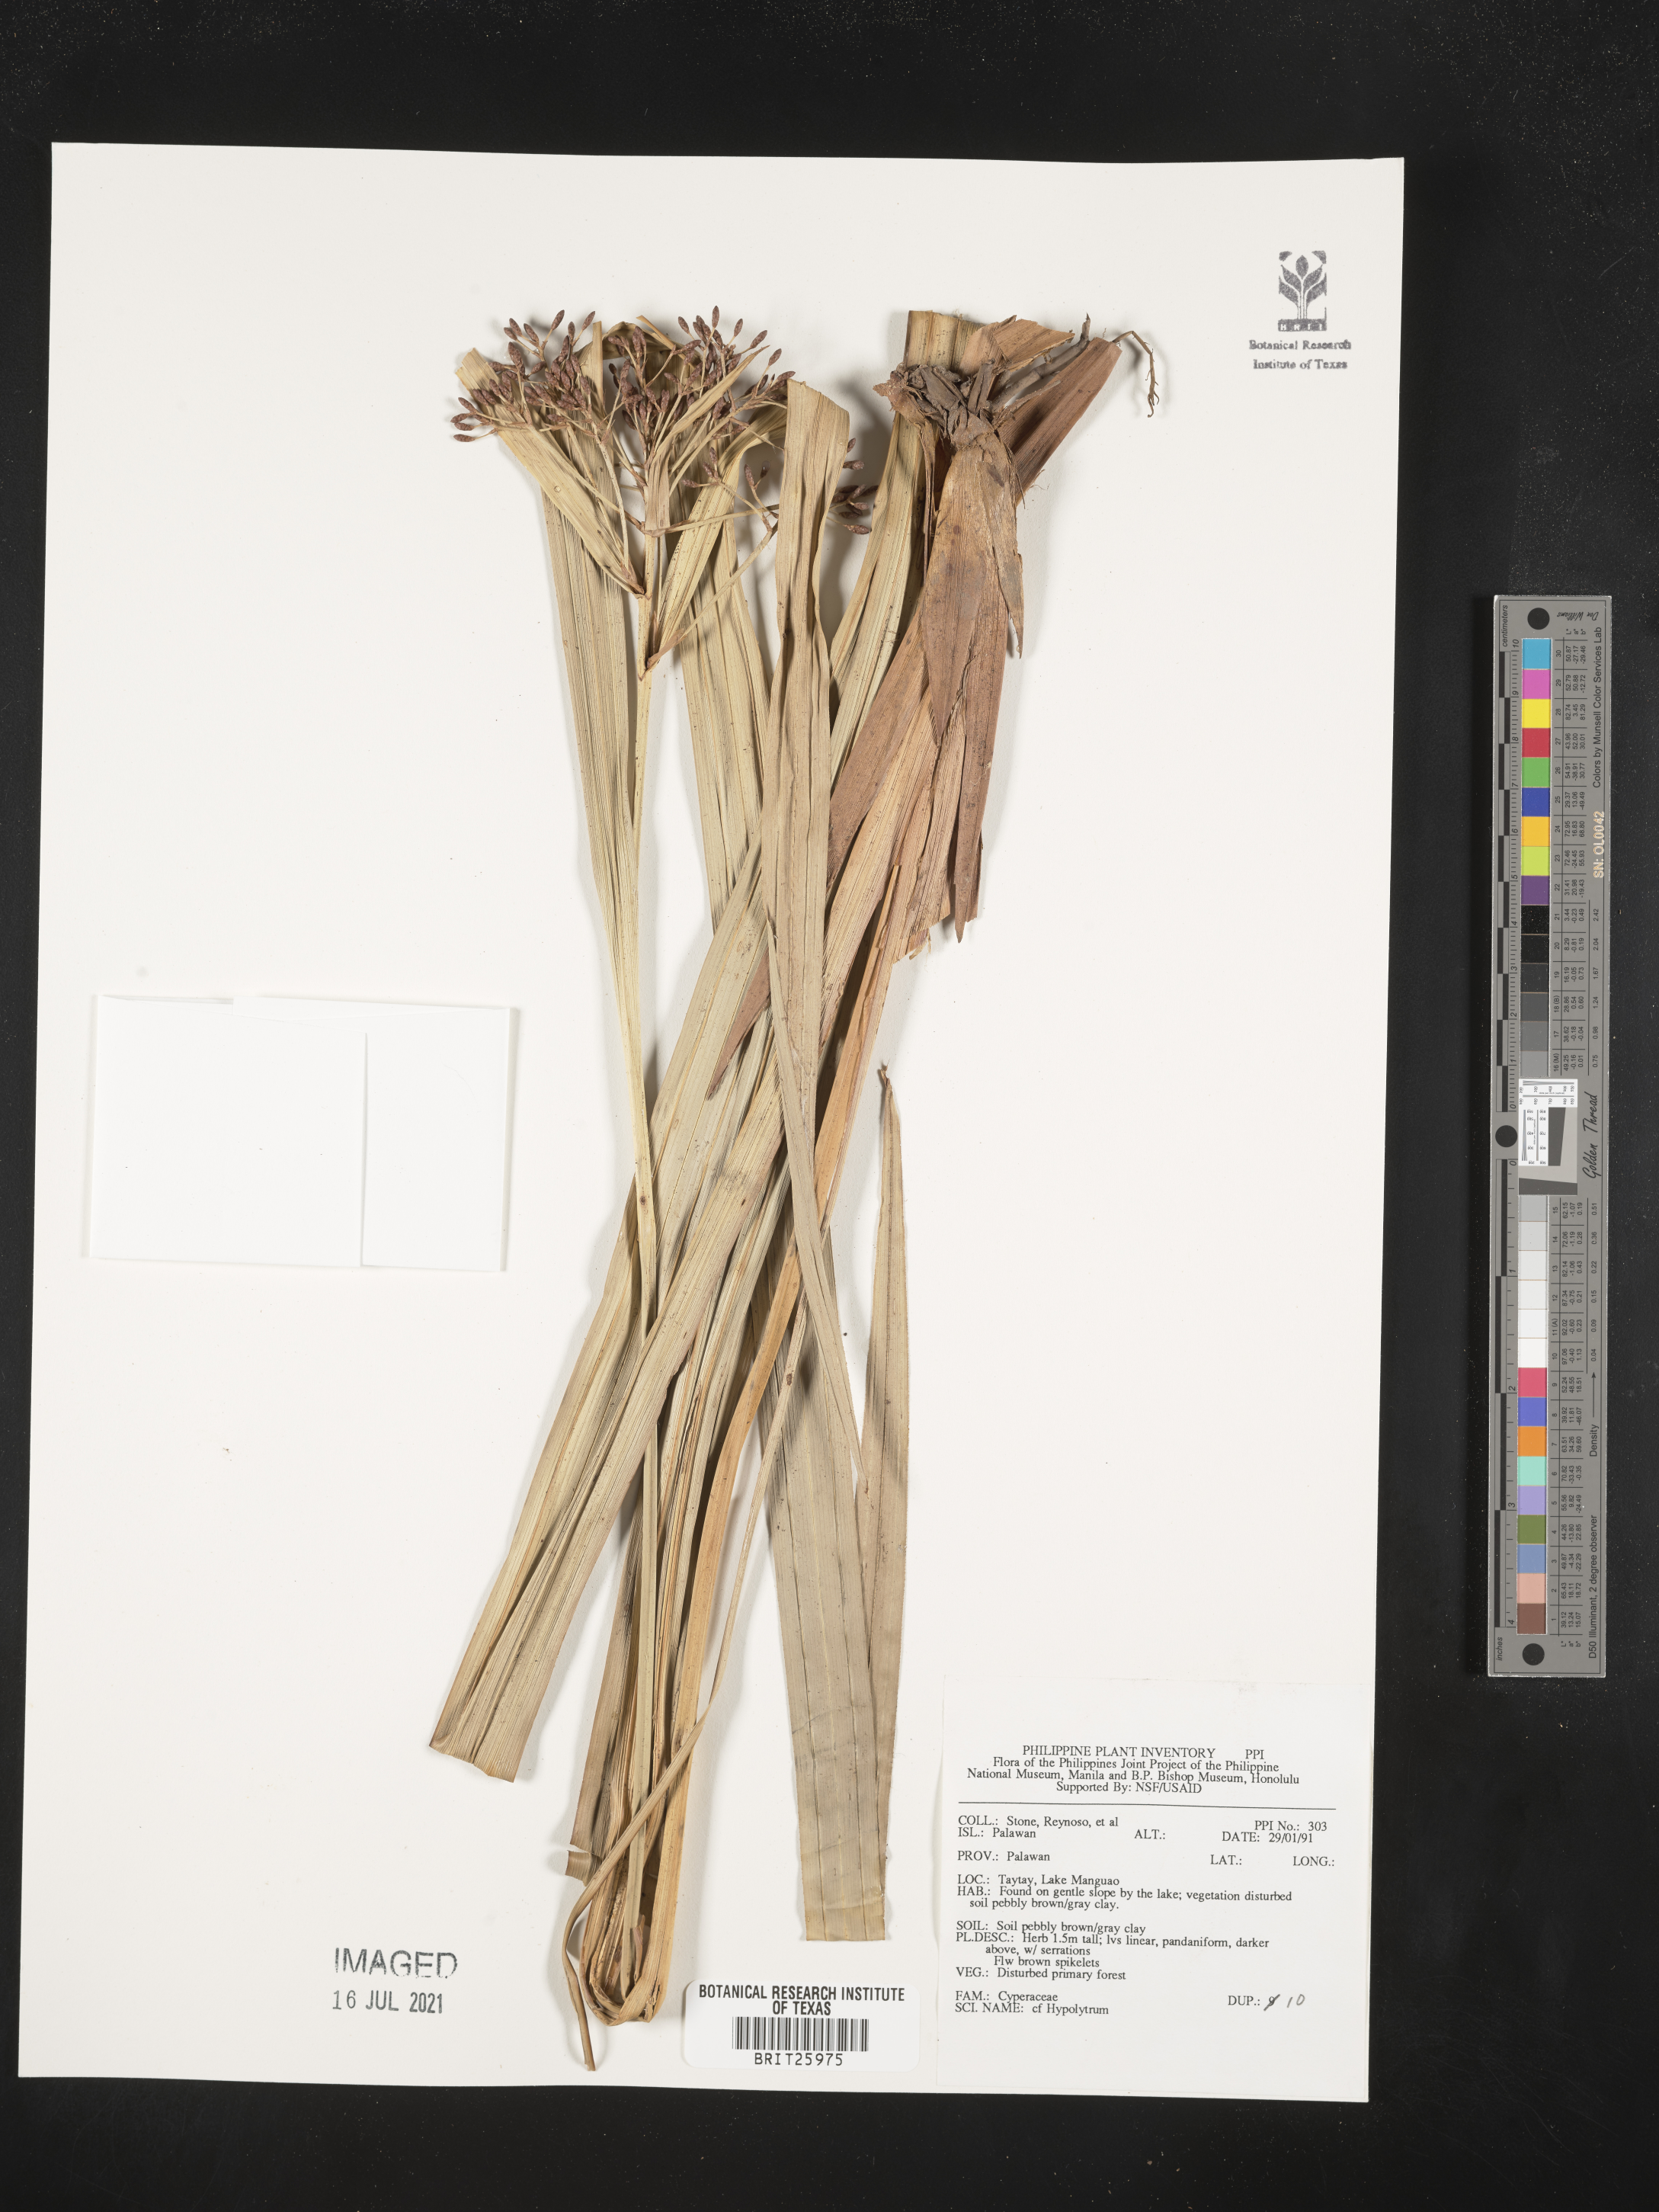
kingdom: Plantae
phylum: Tracheophyta
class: Liliopsida
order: Poales
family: Cyperaceae
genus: Hypolytrum
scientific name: Hypolytrum
